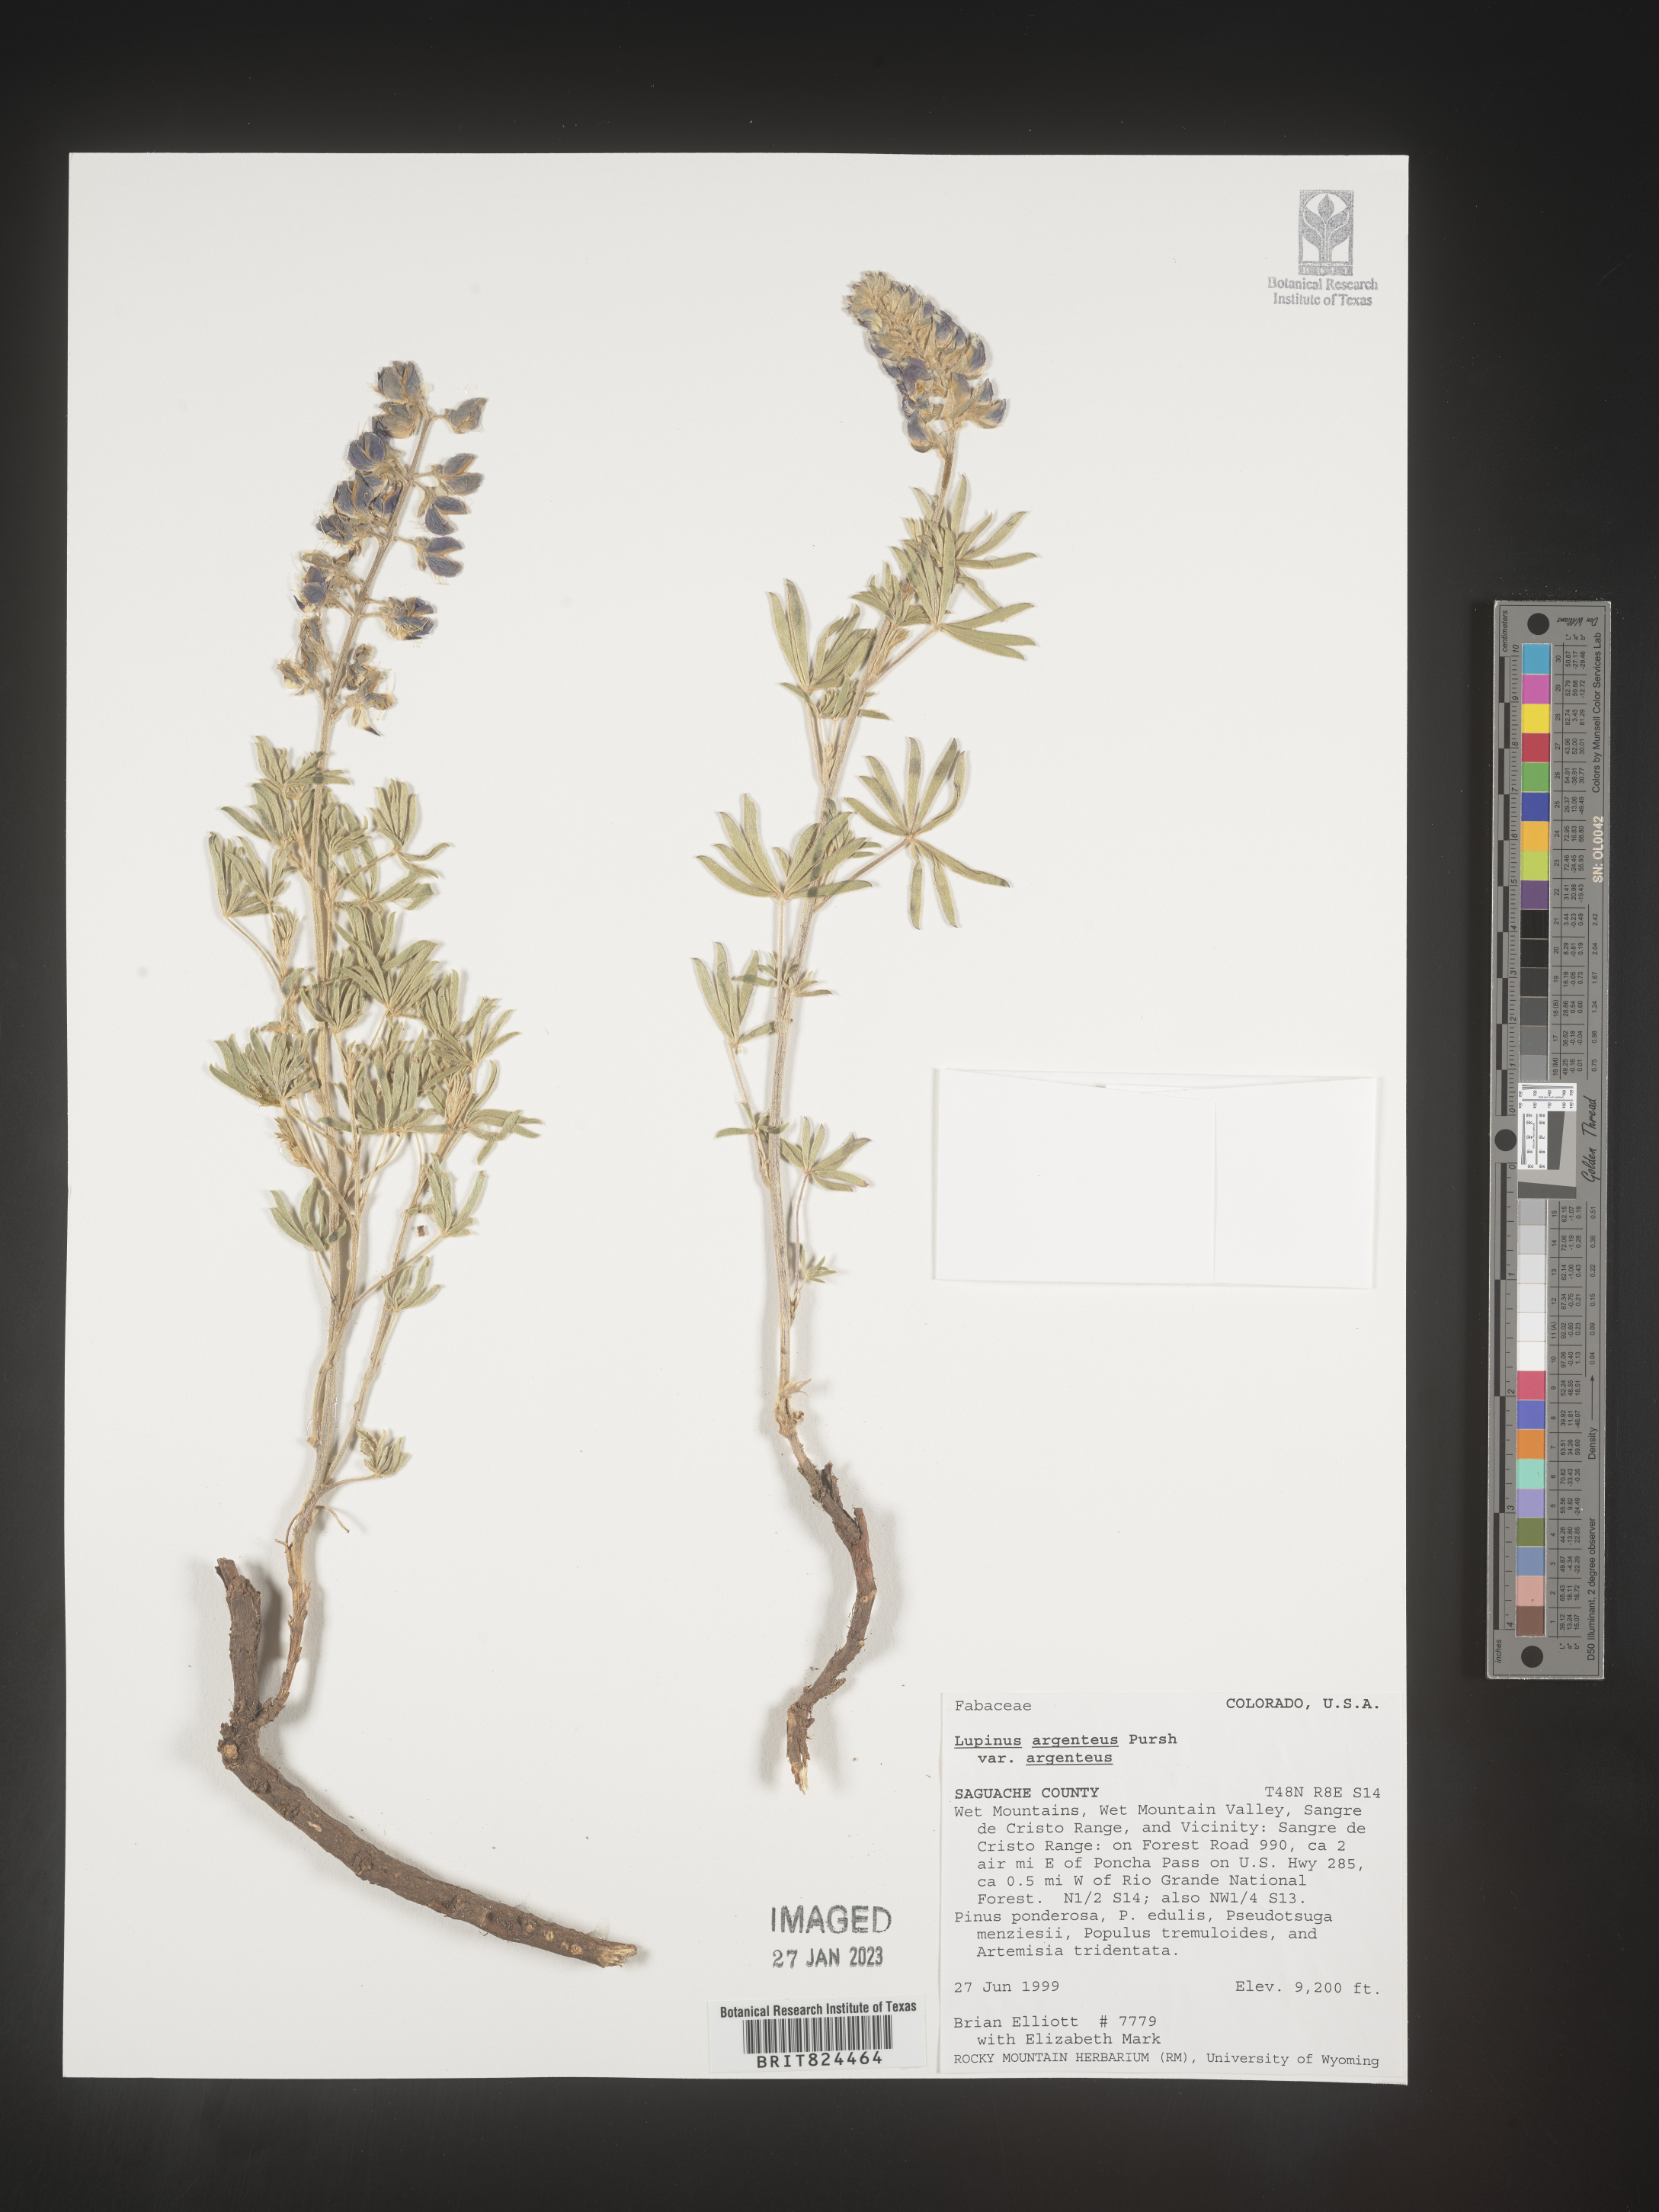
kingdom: Plantae
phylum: Tracheophyta
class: Magnoliopsida
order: Fabales
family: Fabaceae
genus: Lupinus
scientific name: Lupinus argenteus
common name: Silvery lupine
